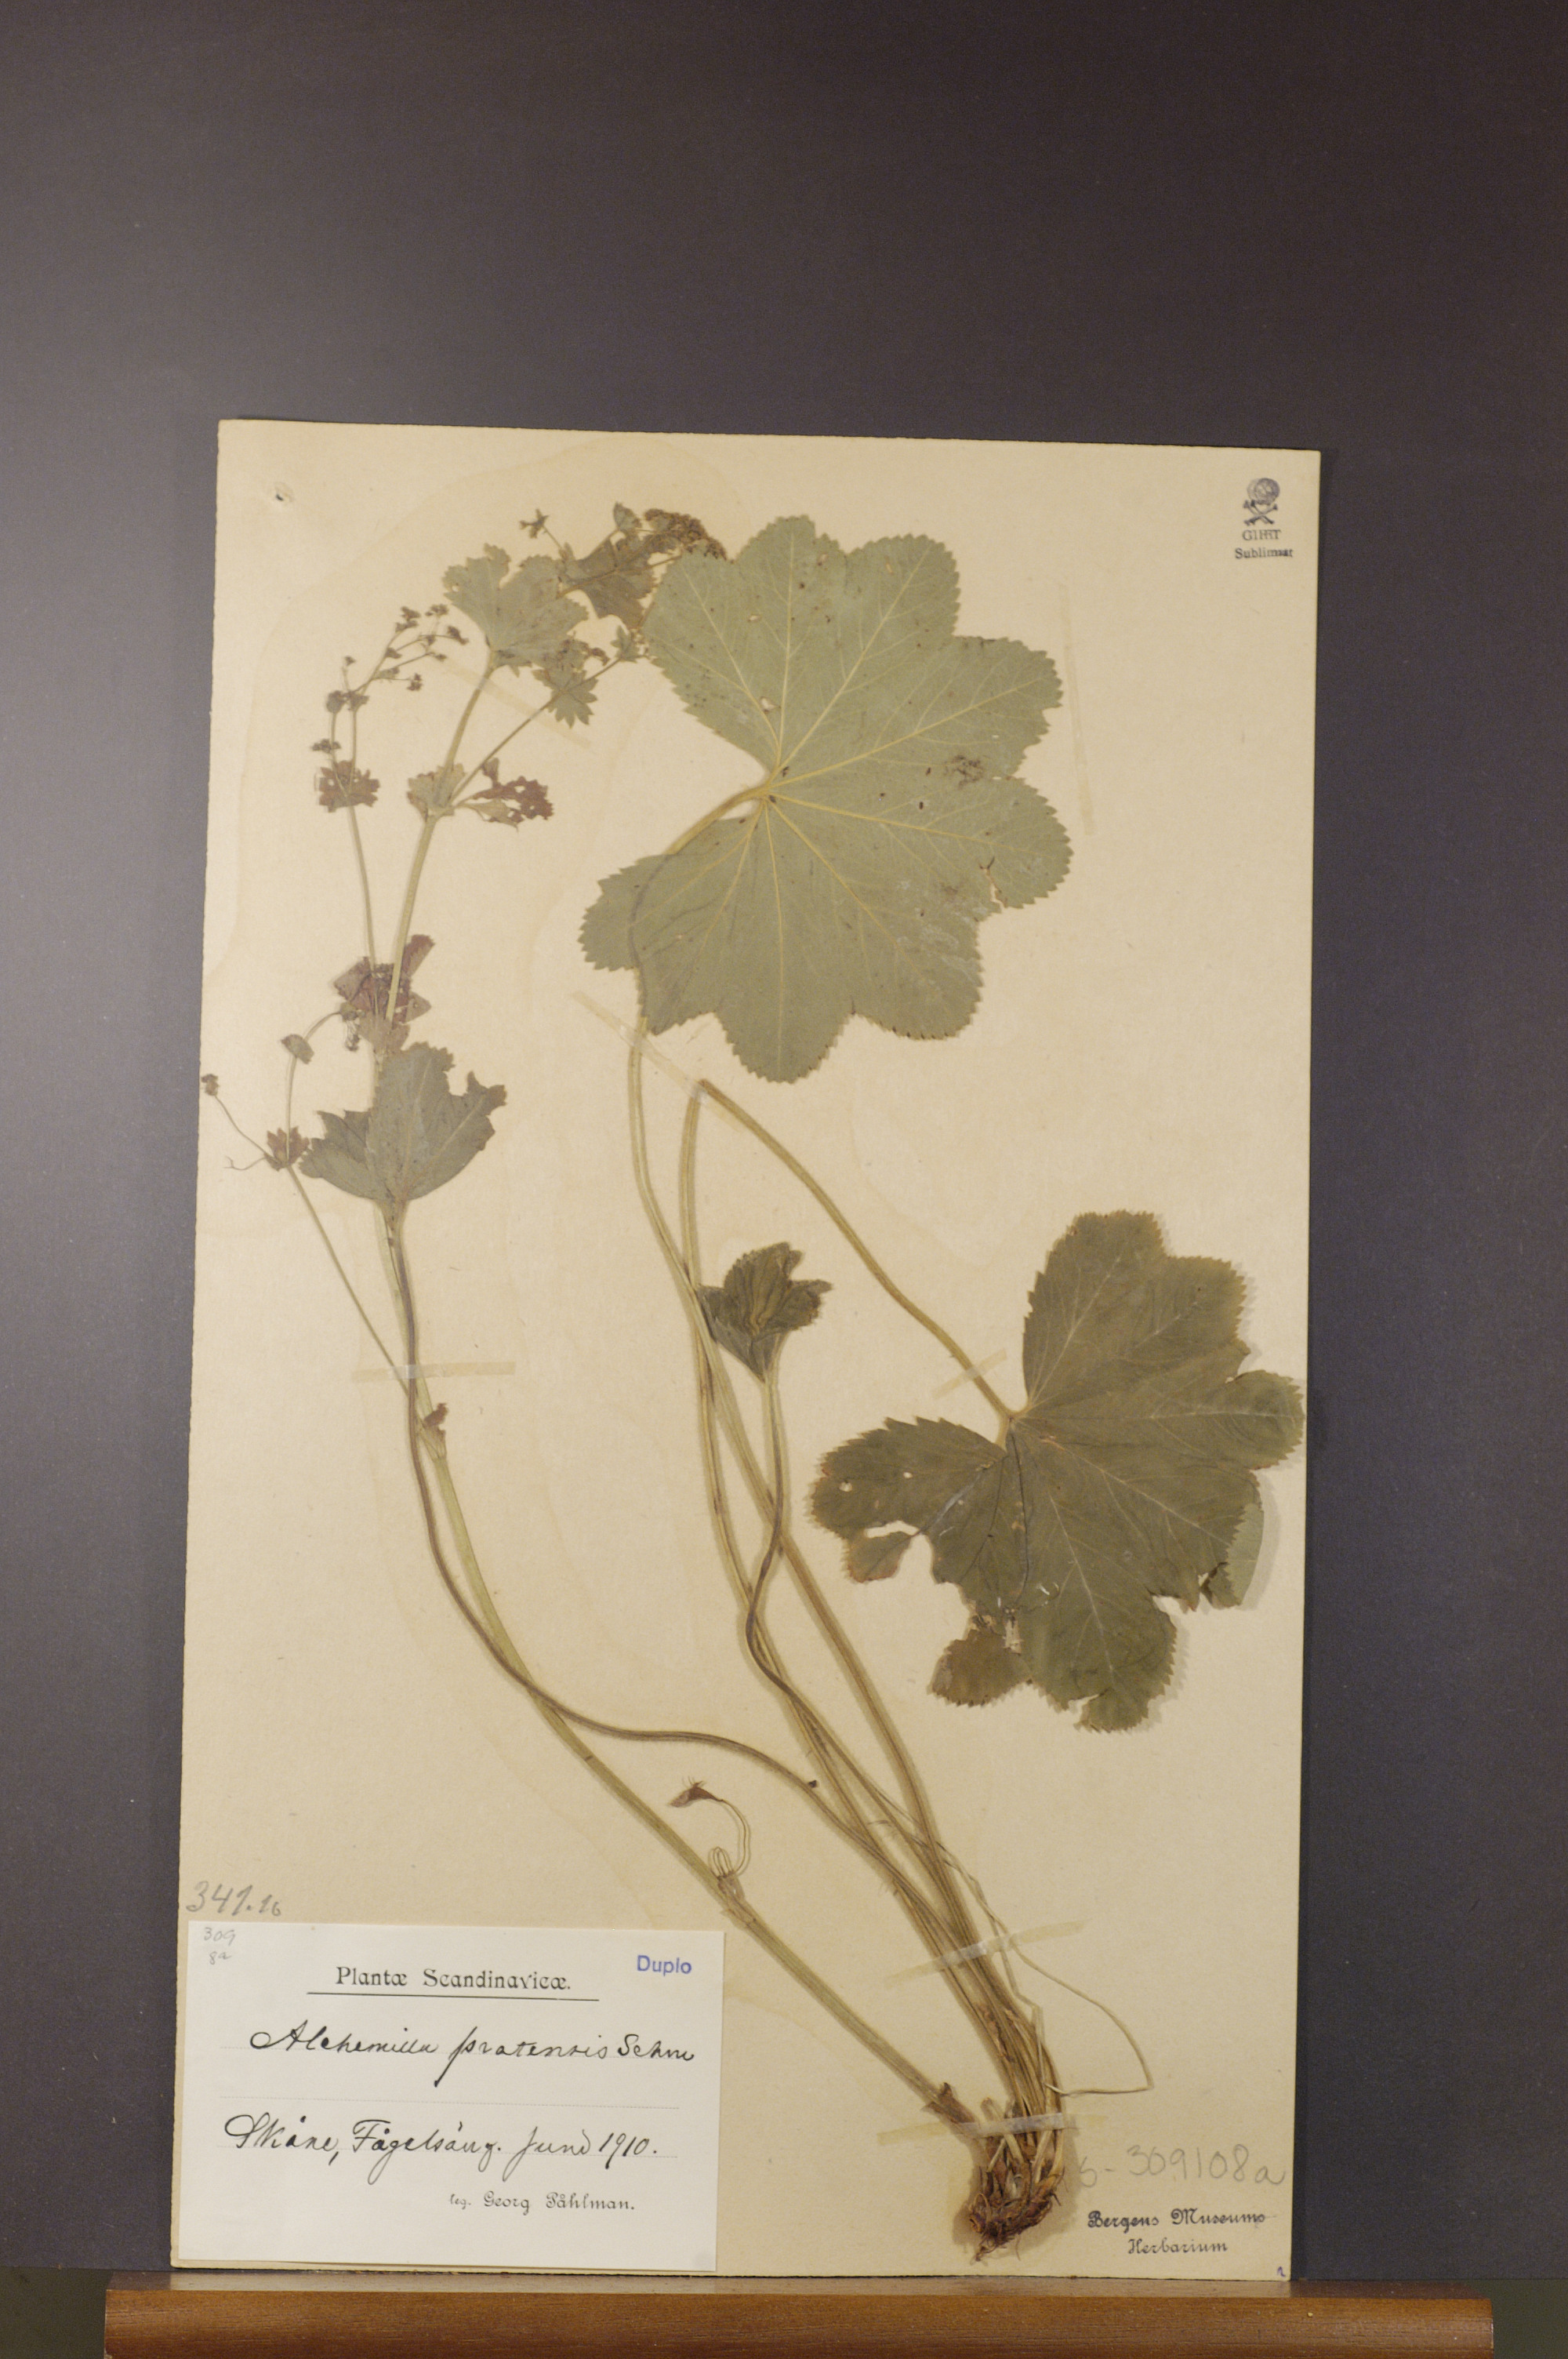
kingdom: Plantae
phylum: Tracheophyta
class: Magnoliopsida
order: Rosales
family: Rosaceae
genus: Alchemilla
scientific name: Alchemilla xanthochlora
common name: Intermediate lady's-mantle
